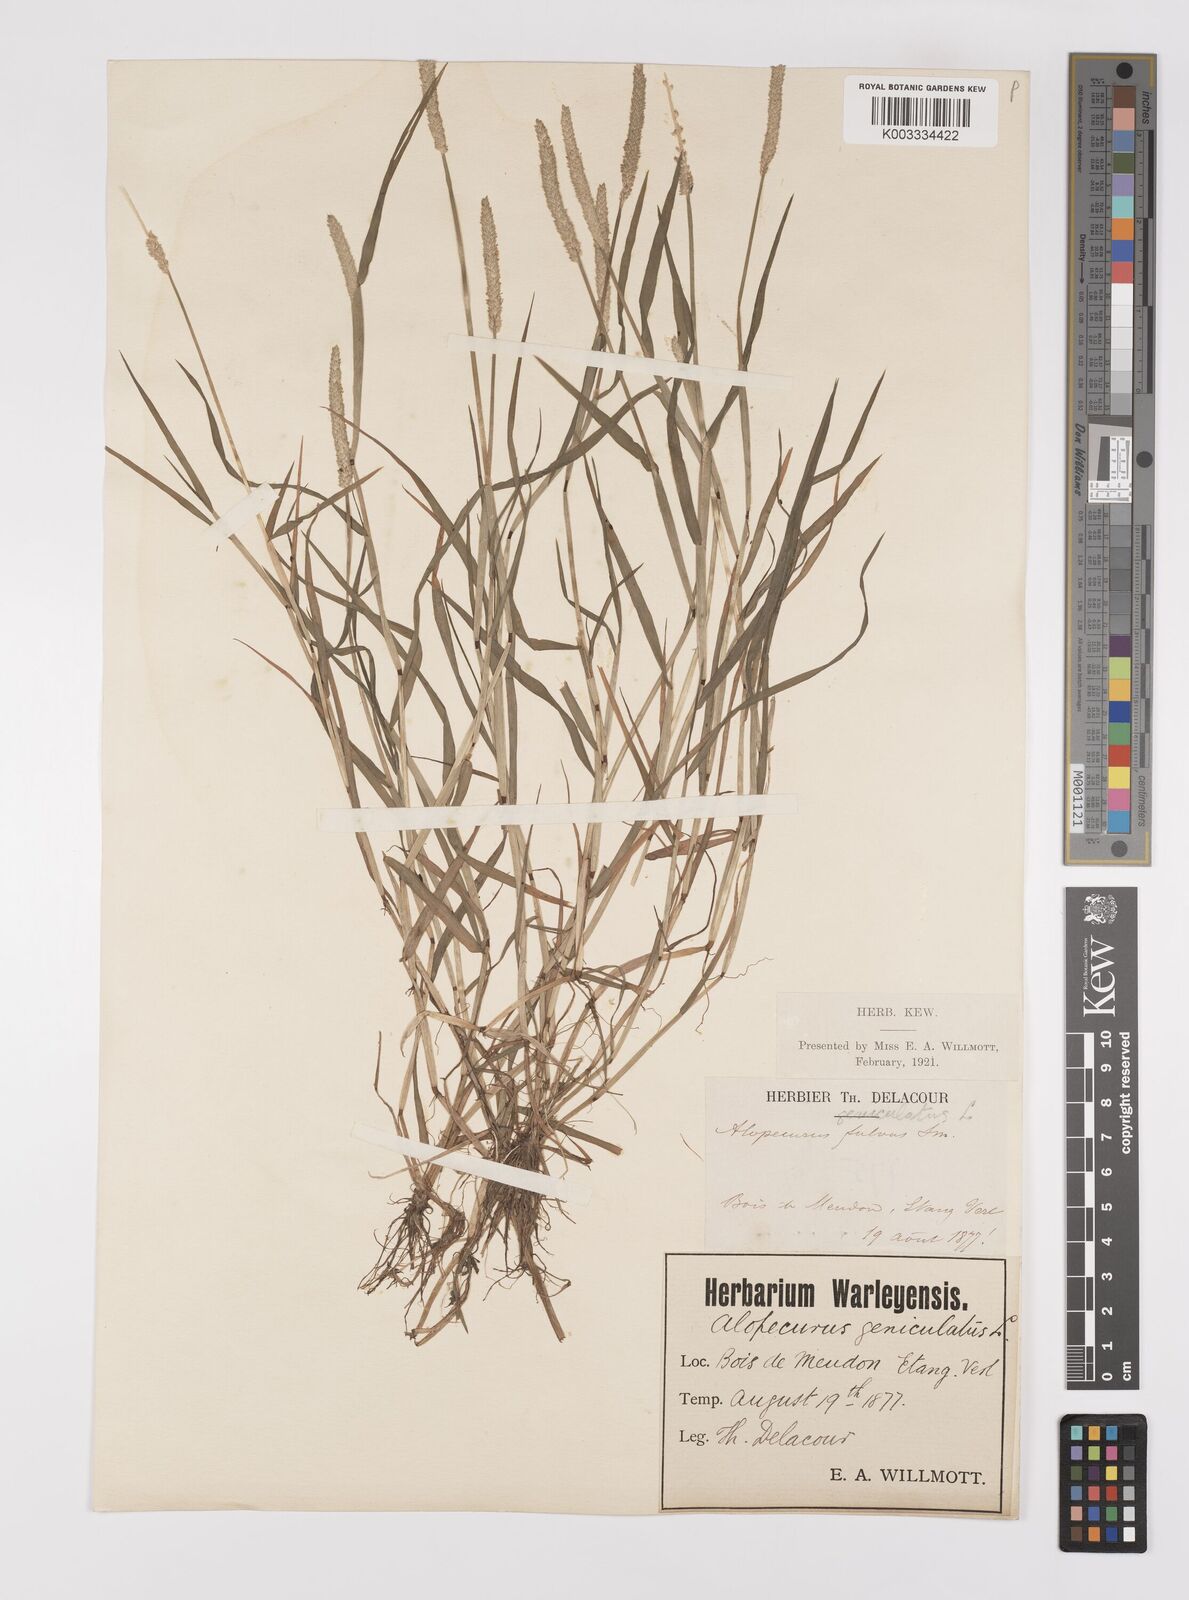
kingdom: Plantae
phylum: Tracheophyta
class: Liliopsida
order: Poales
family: Poaceae
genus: Alopecurus
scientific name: Alopecurus aequalis
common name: Orange foxtail
